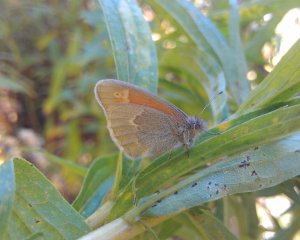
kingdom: Animalia
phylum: Arthropoda
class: Insecta
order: Lepidoptera
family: Nymphalidae
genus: Coenonympha
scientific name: Coenonympha tullia
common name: Large Heath
